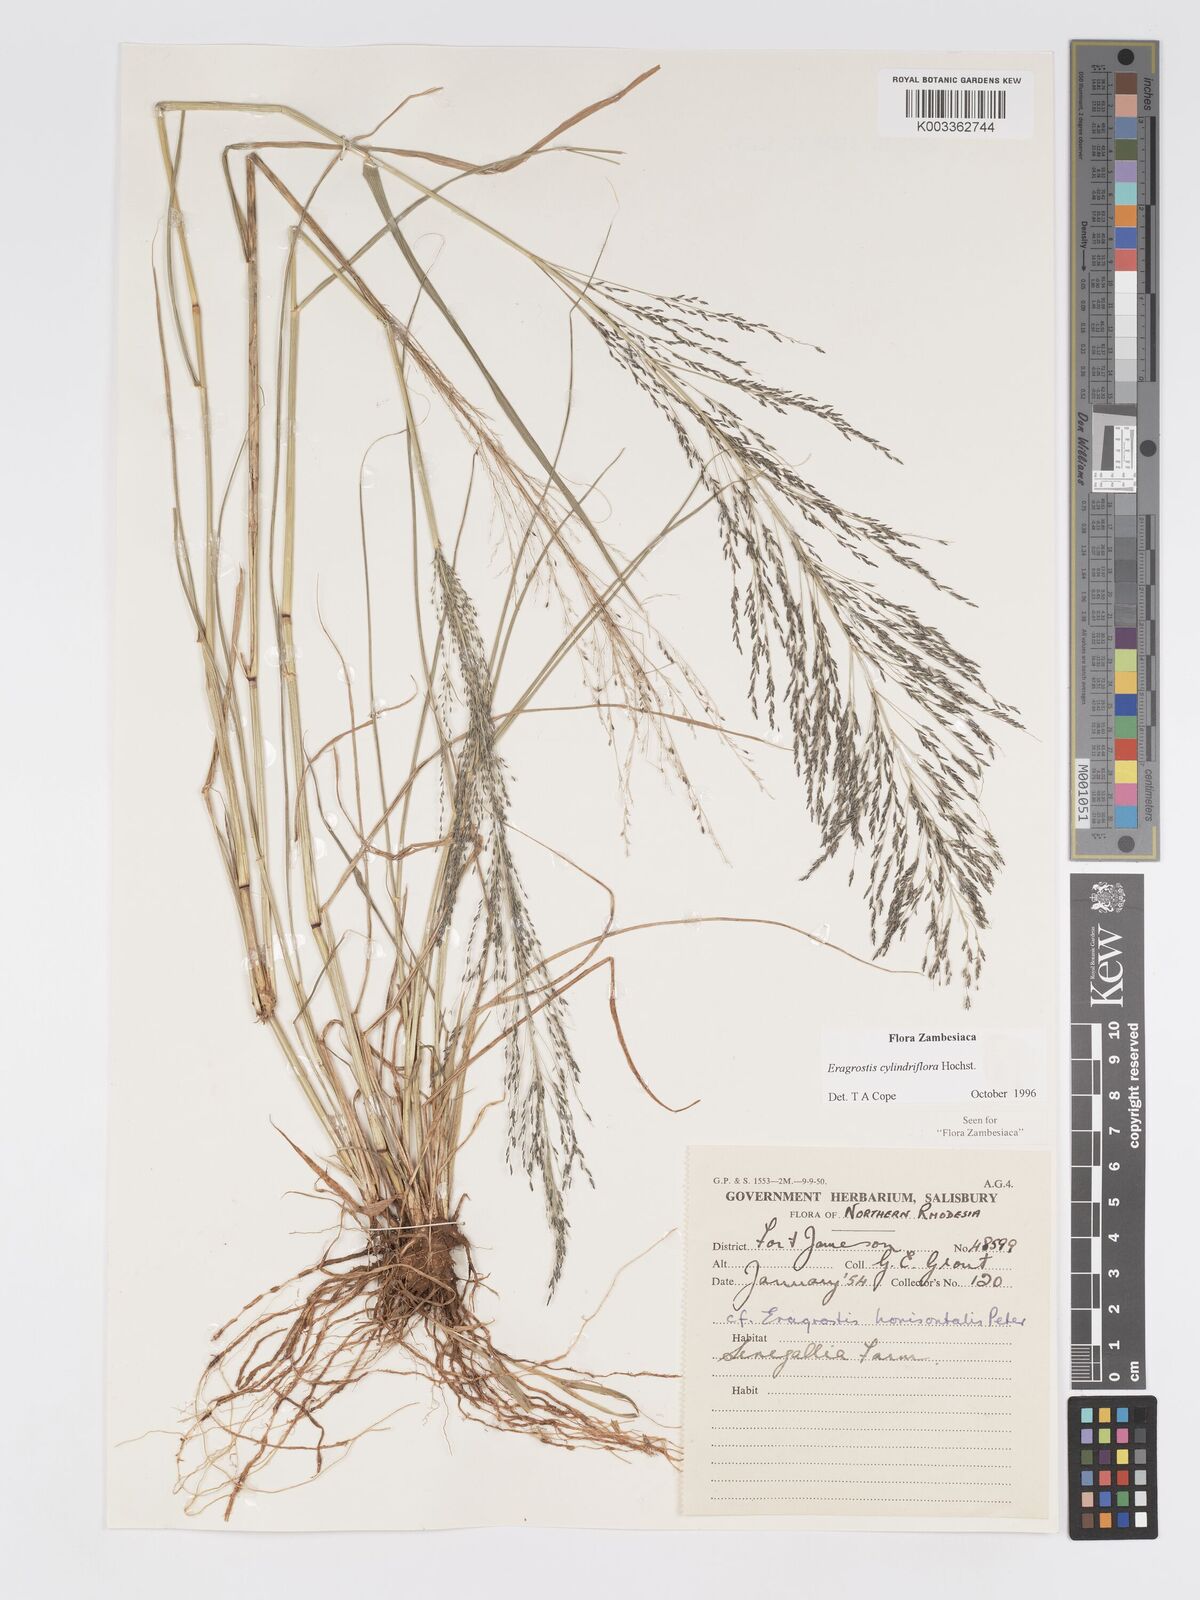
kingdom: Plantae
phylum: Tracheophyta
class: Liliopsida
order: Poales
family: Poaceae
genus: Eragrostis
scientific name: Eragrostis cylindriflora
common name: Cylinderflower lovegrass
